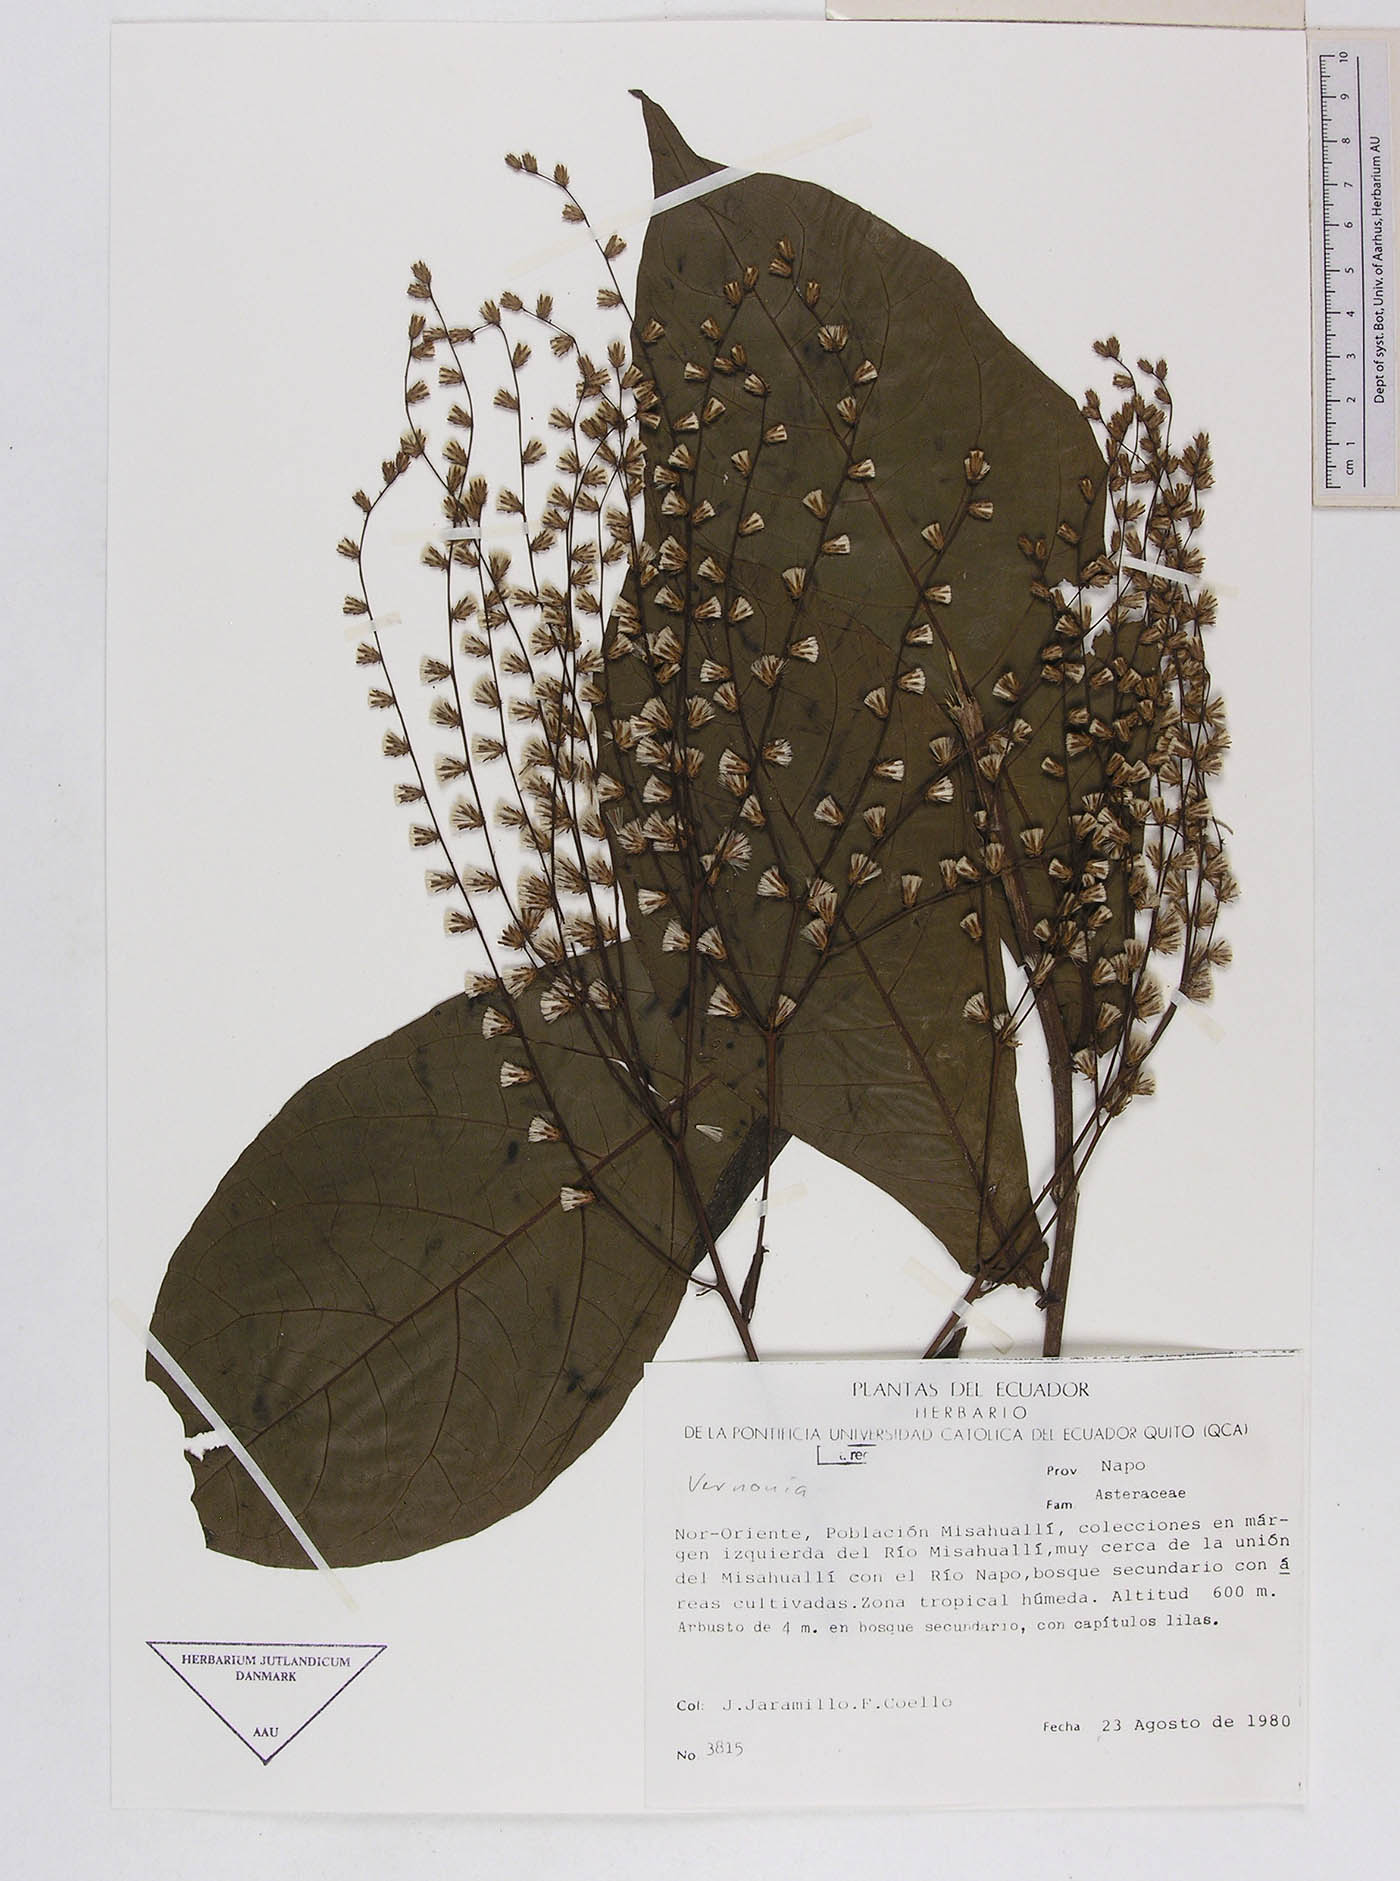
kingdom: Plantae
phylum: Tracheophyta
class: Magnoliopsida
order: Asterales
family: Asteraceae
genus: Eirmocephala
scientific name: Eirmocephala cainarachiensis
